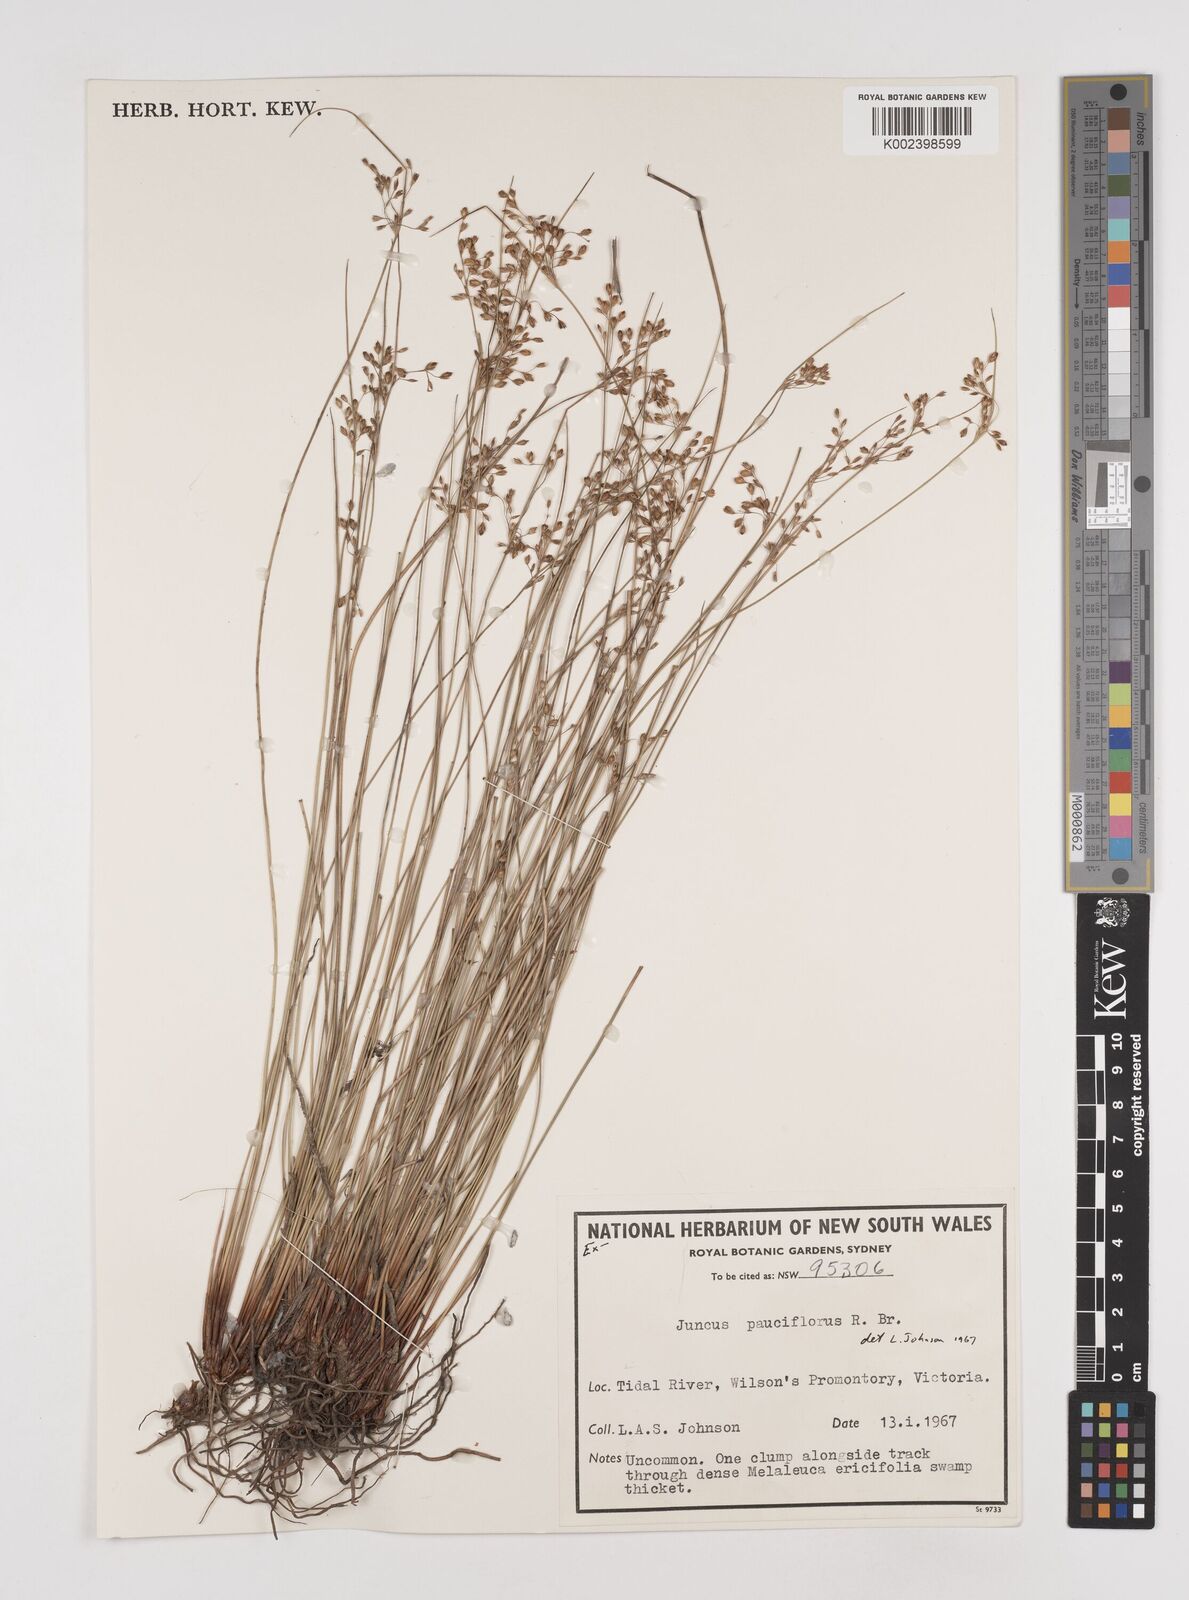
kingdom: Plantae
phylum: Tracheophyta
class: Liliopsida
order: Poales
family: Juncaceae
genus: Juncus
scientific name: Juncus pauciflorus
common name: Loose-flowered rush
